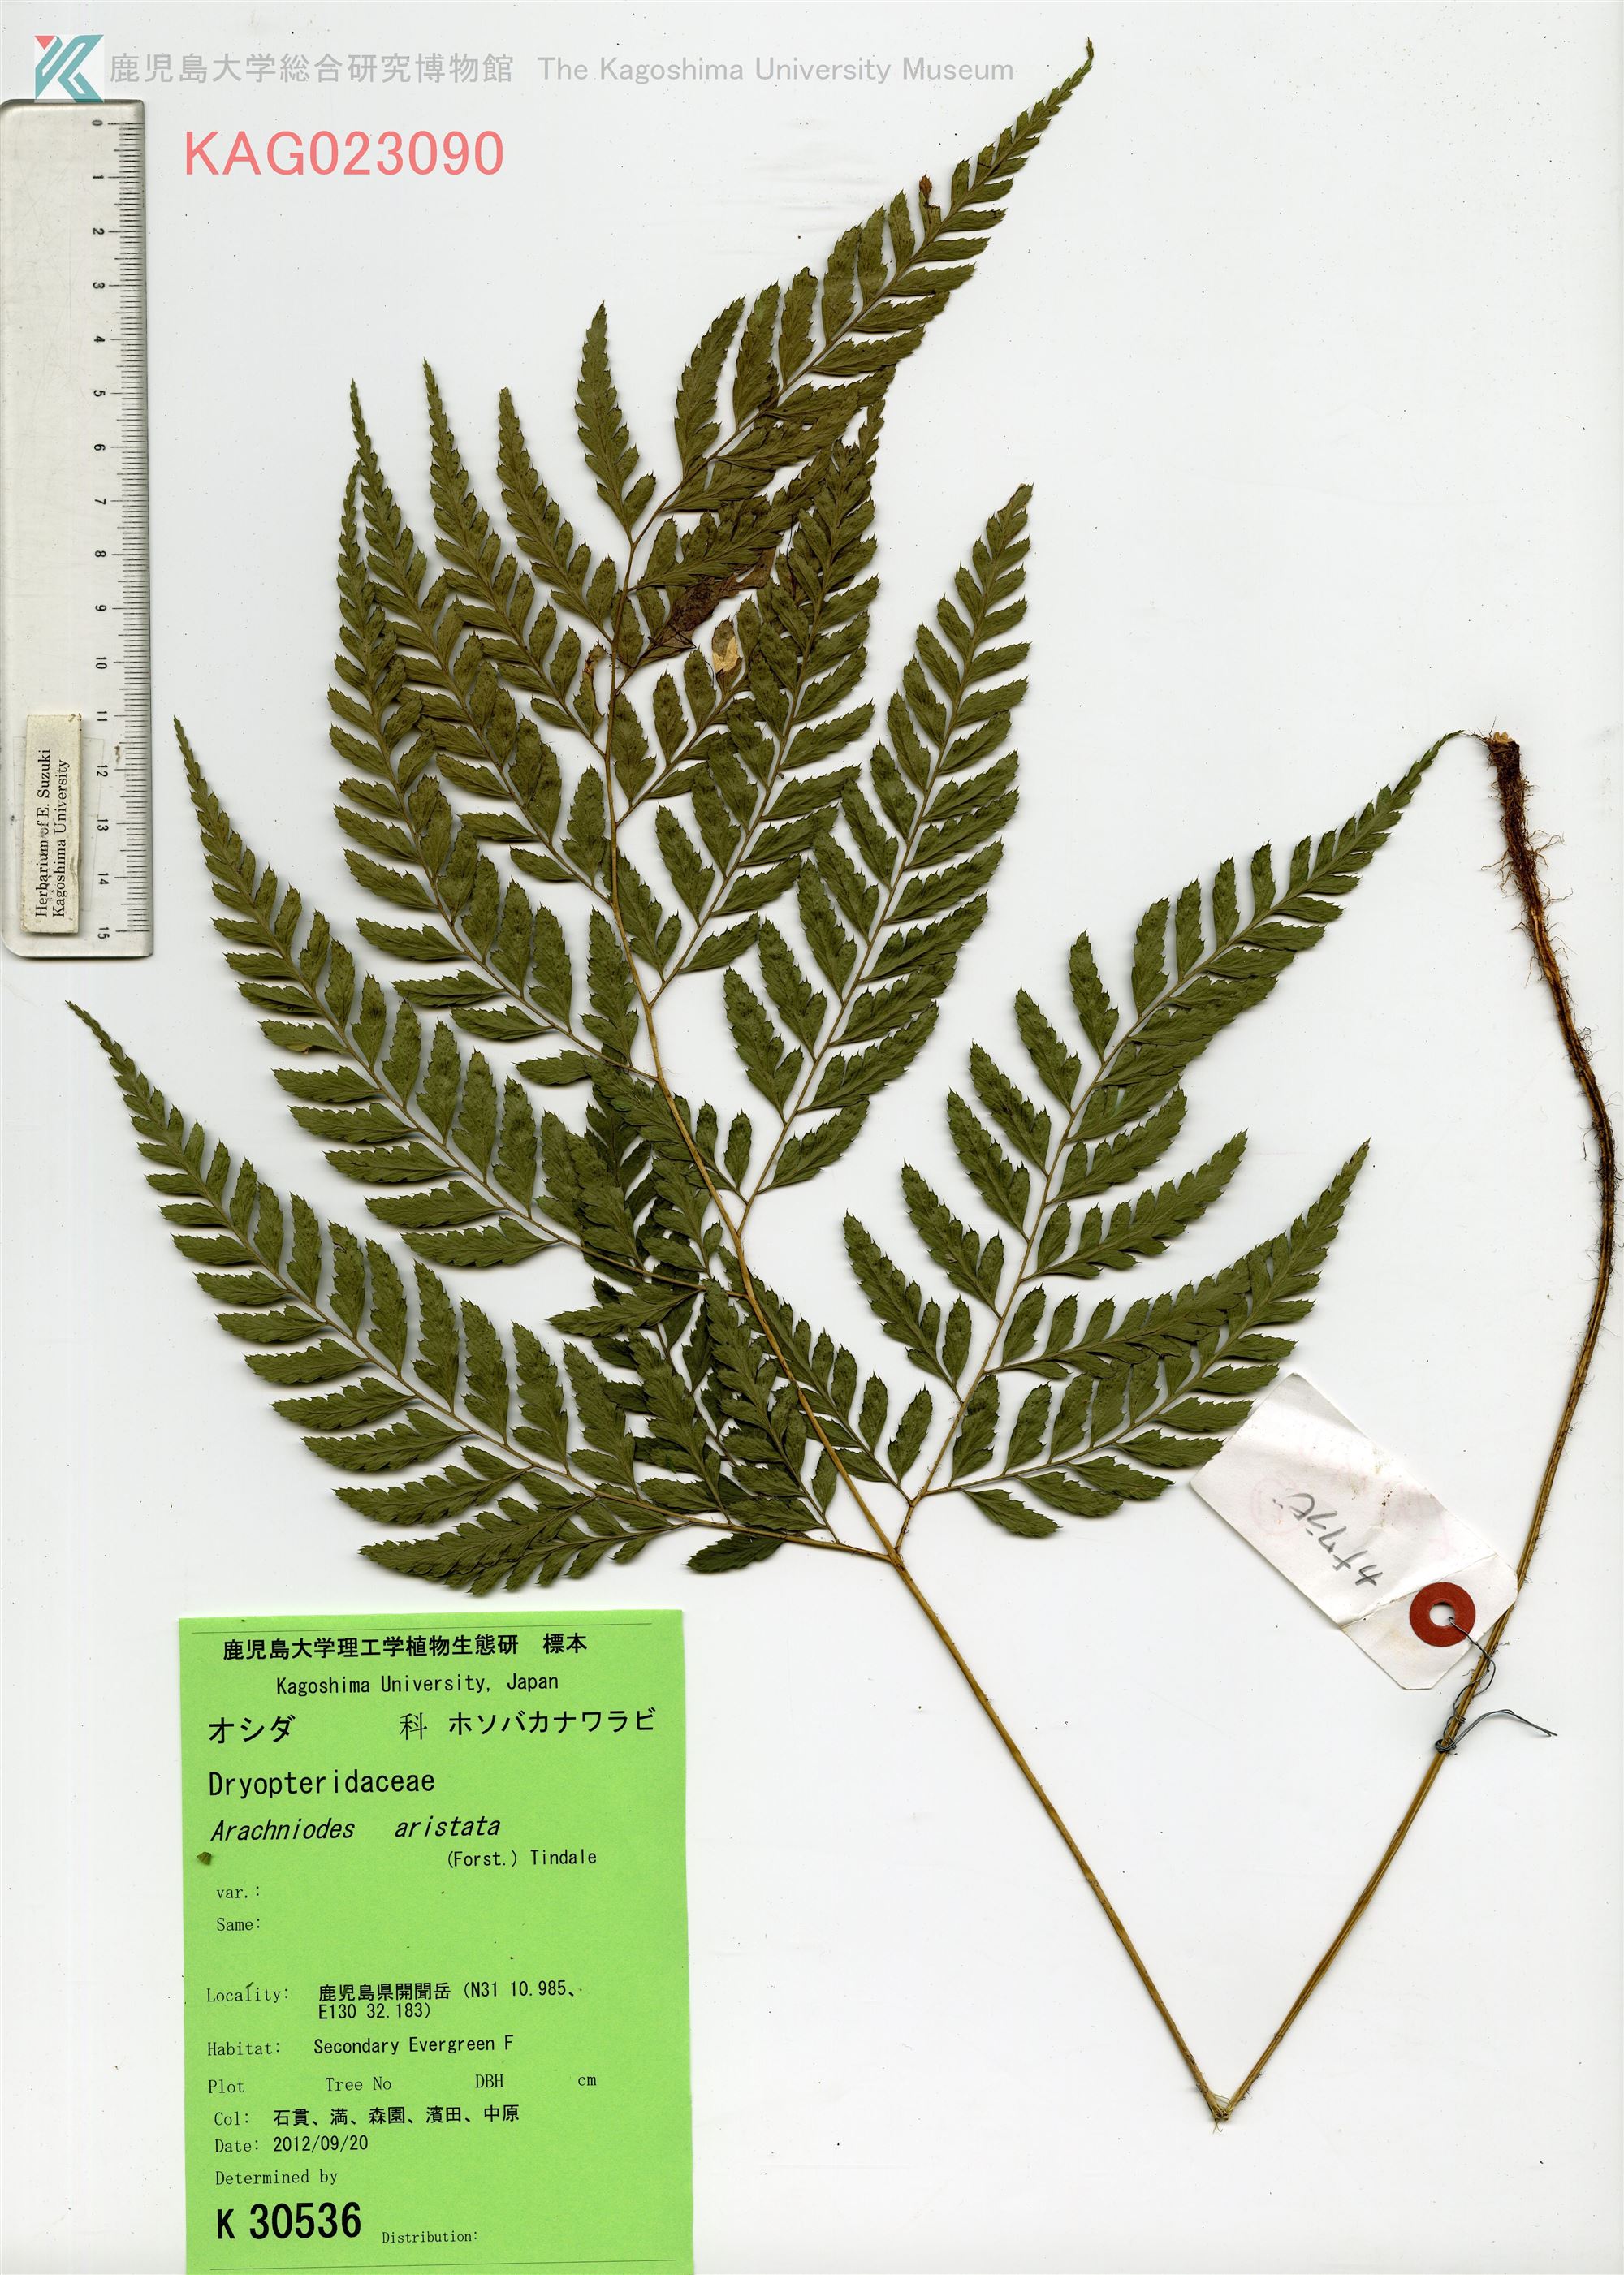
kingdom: Plantae
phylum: Tracheophyta
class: Polypodiopsida
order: Polypodiales
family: Dryopteridaceae
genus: Arachniodes
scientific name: Arachniodes carvifolia
